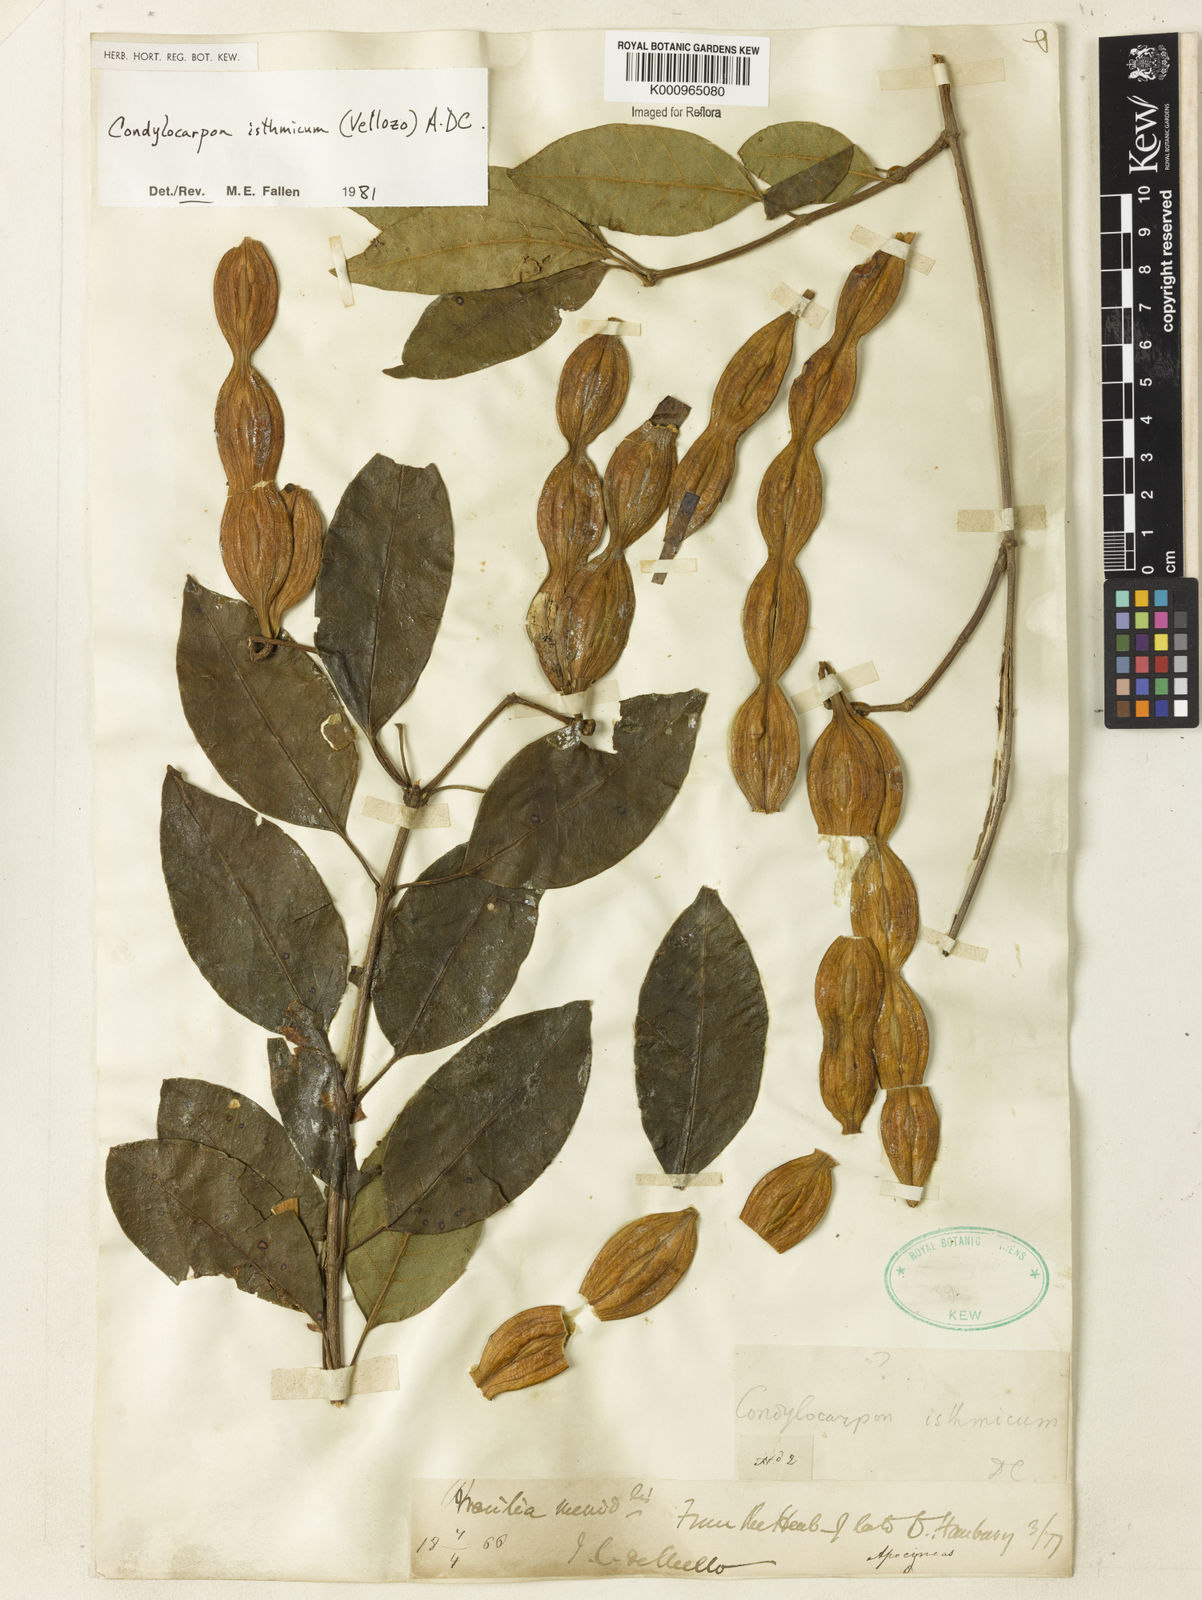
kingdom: Plantae
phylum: Tracheophyta
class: Magnoliopsida
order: Gentianales
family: Apocynaceae
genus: Condylocarpon
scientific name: Condylocarpon isthmicum
